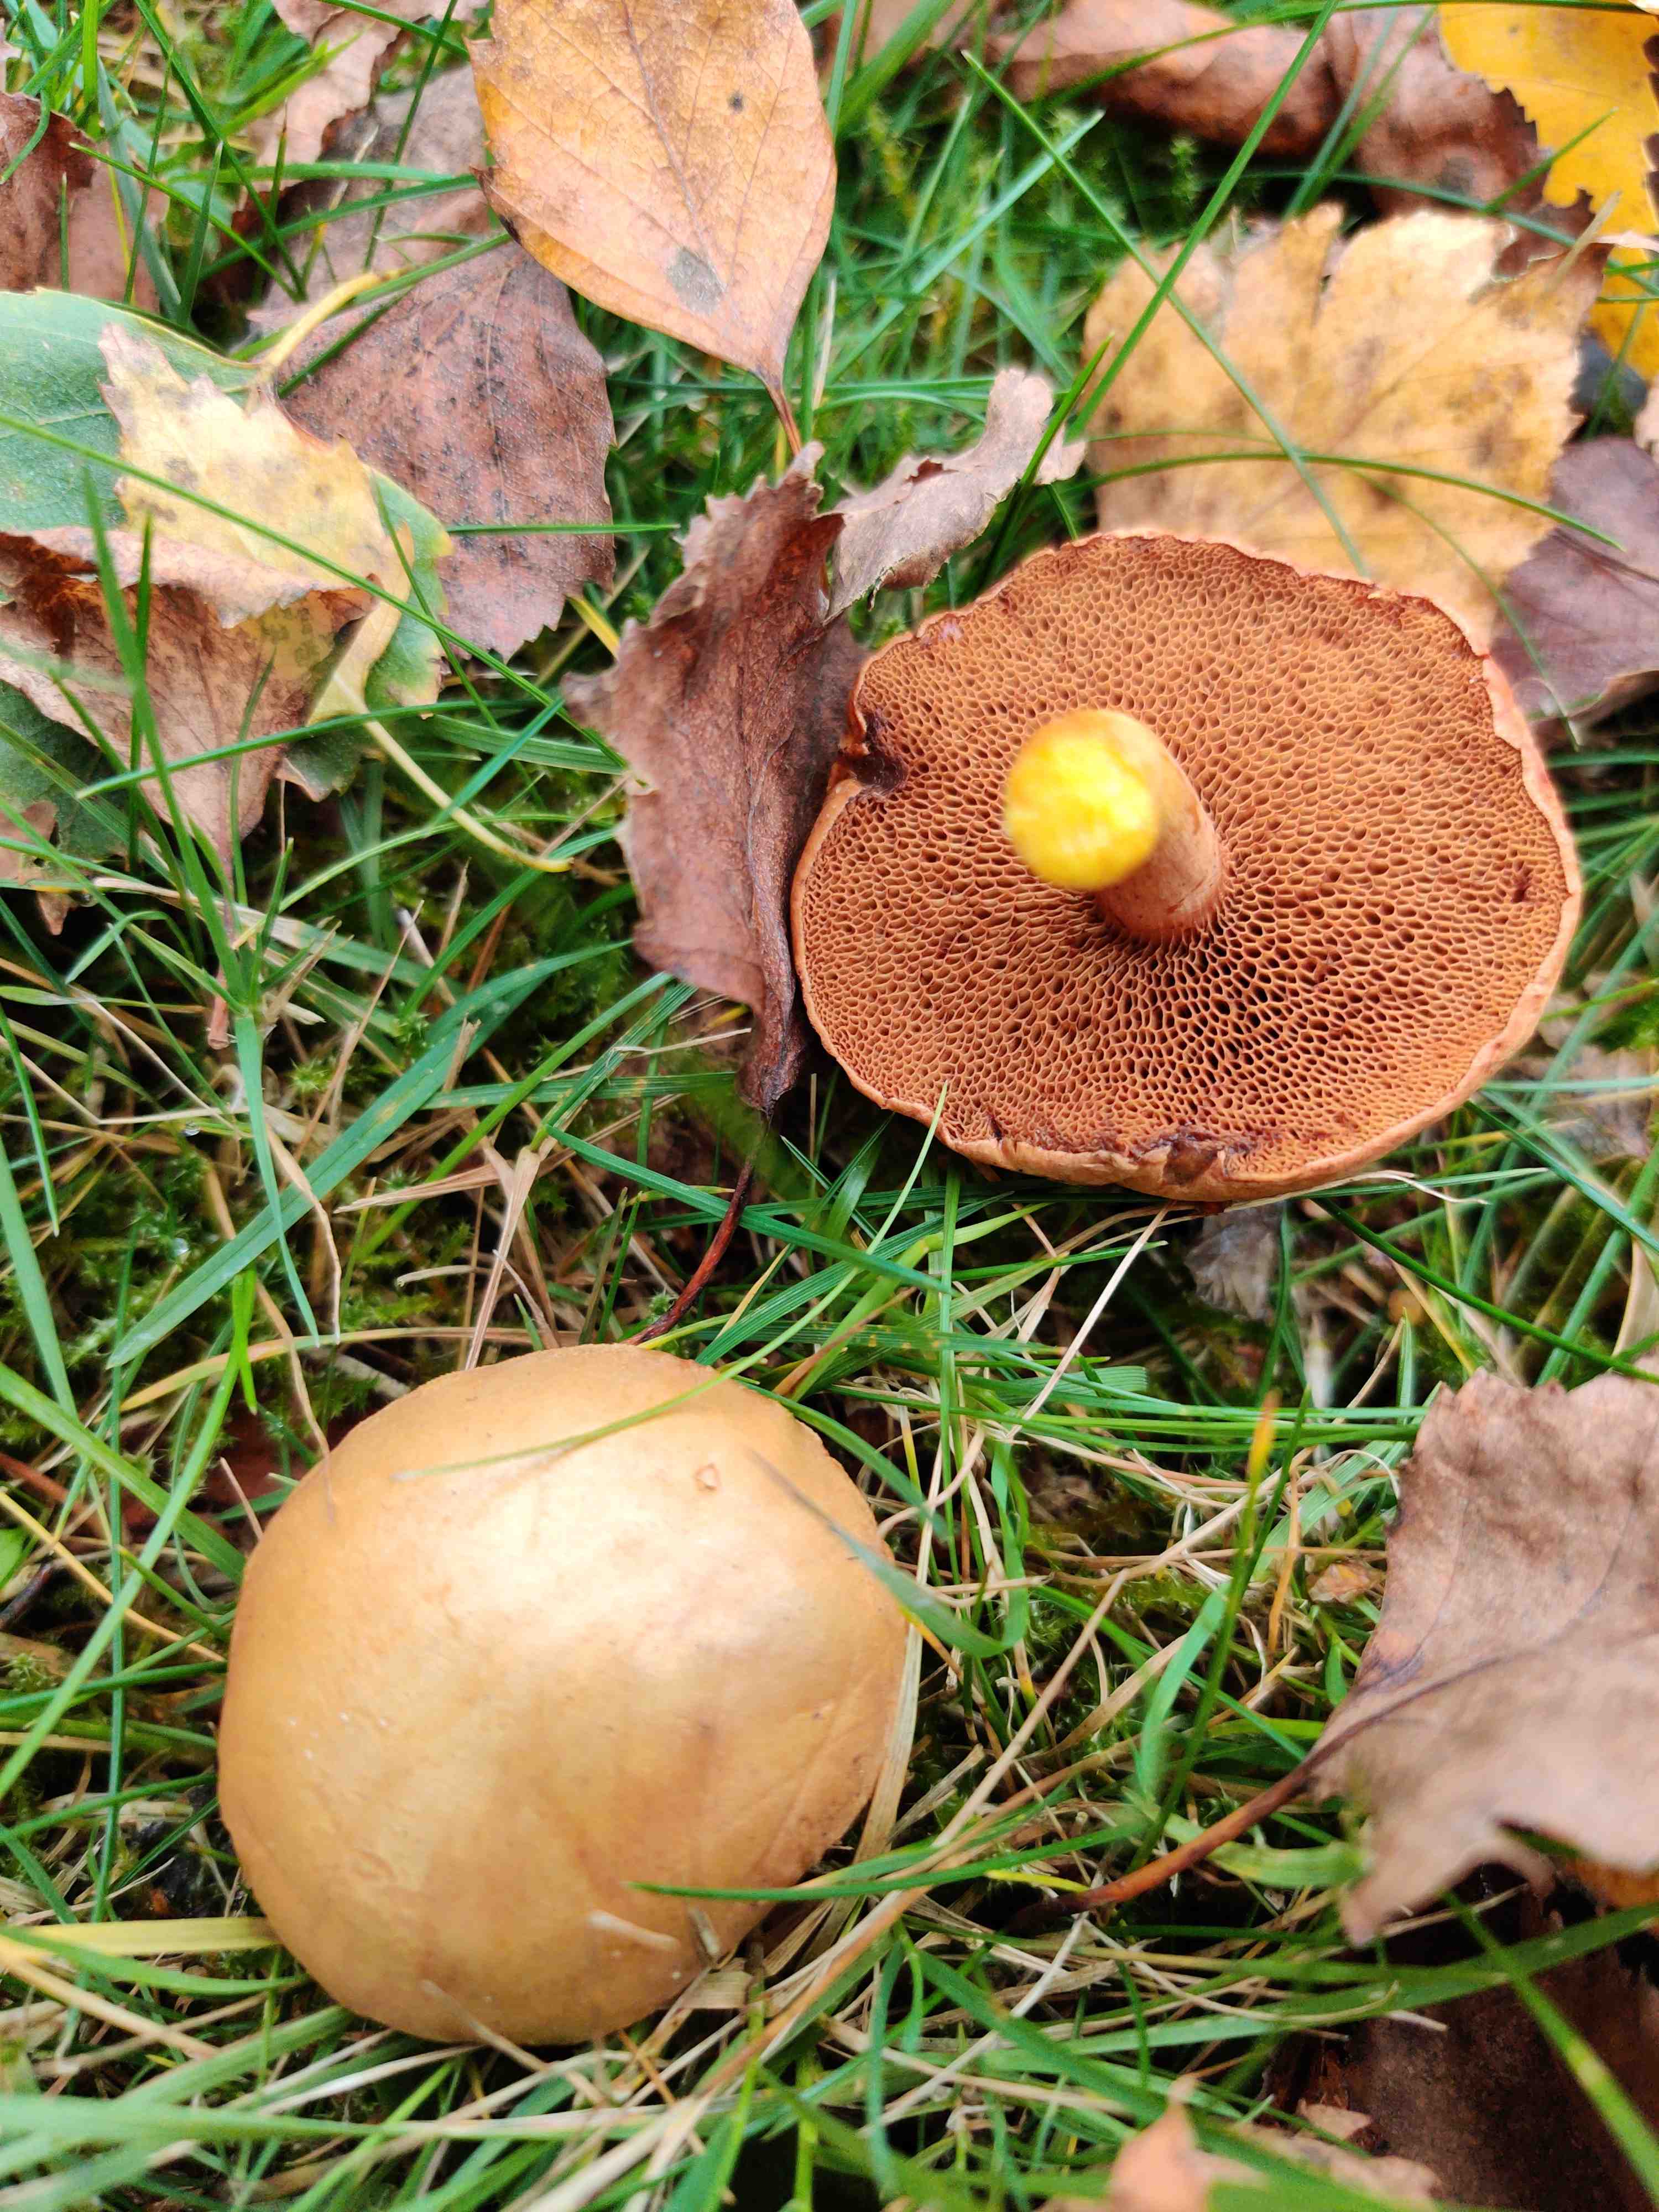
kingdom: Fungi
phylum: Basidiomycota
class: Agaricomycetes
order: Boletales
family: Boletaceae
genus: Chalciporus
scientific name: Chalciporus piperatus
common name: peberrørhat
